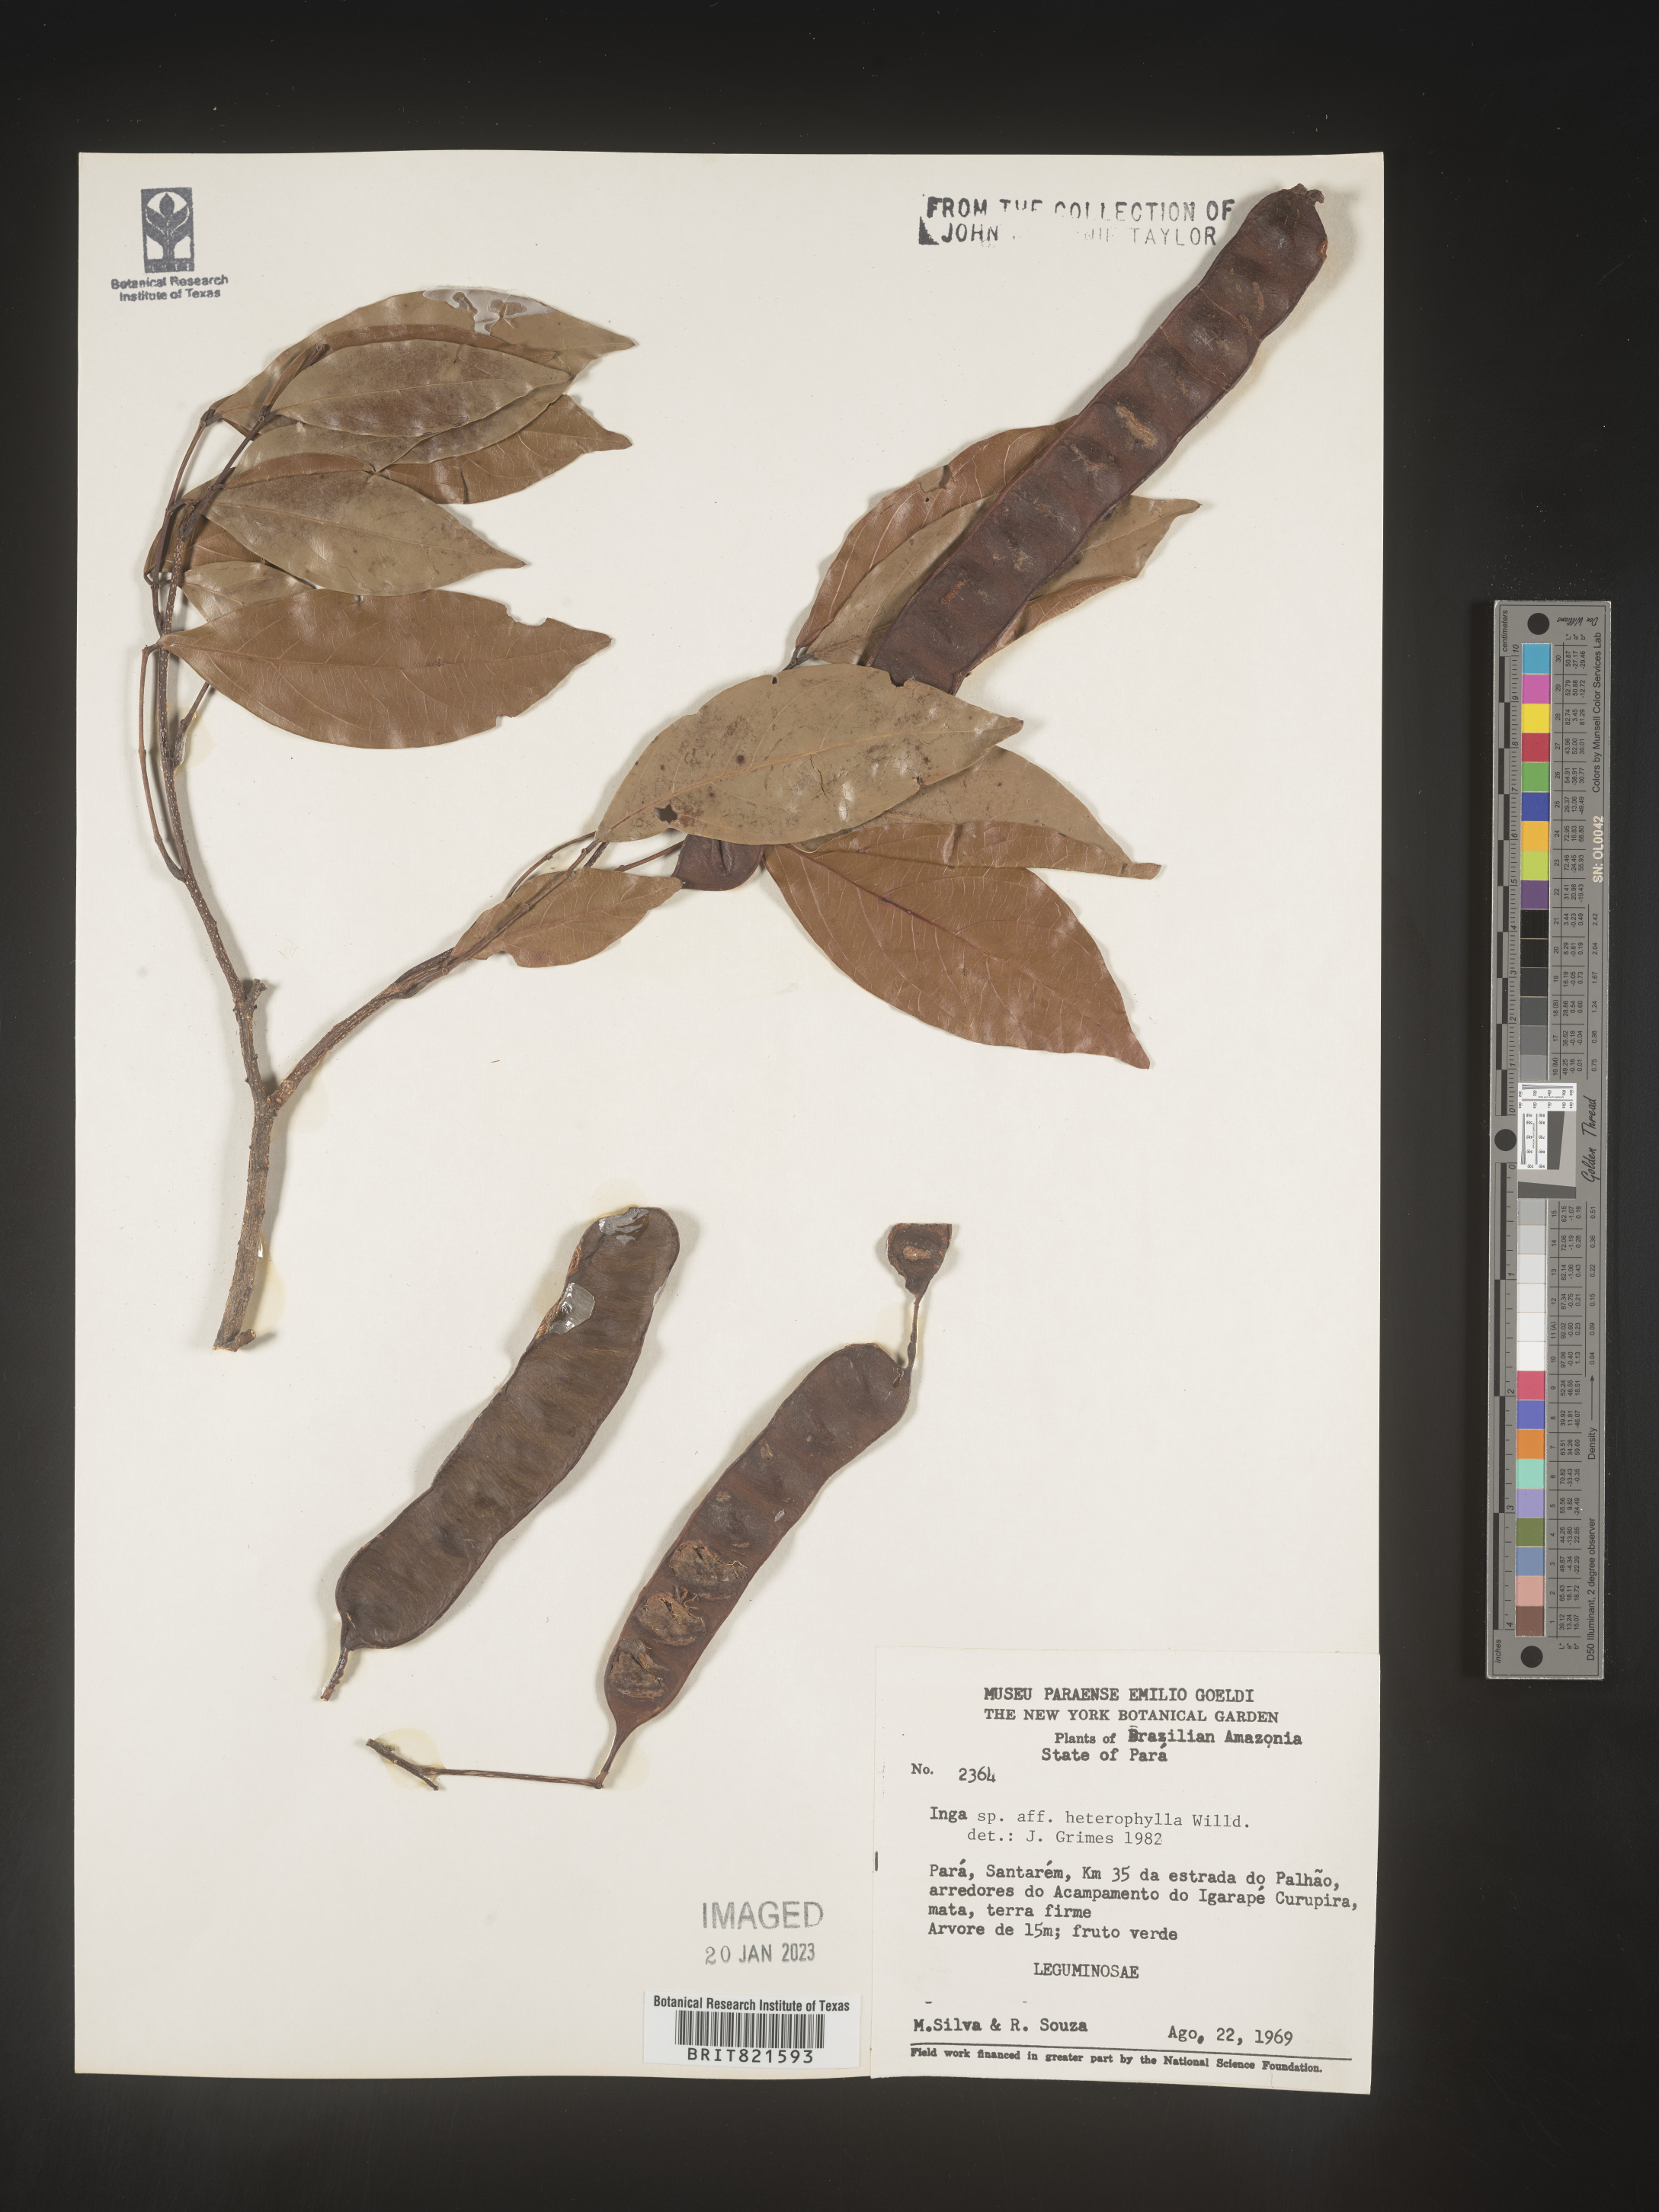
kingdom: Plantae
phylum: Tracheophyta
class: Magnoliopsida
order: Fabales
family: Fabaceae
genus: Inga
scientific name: Inga
